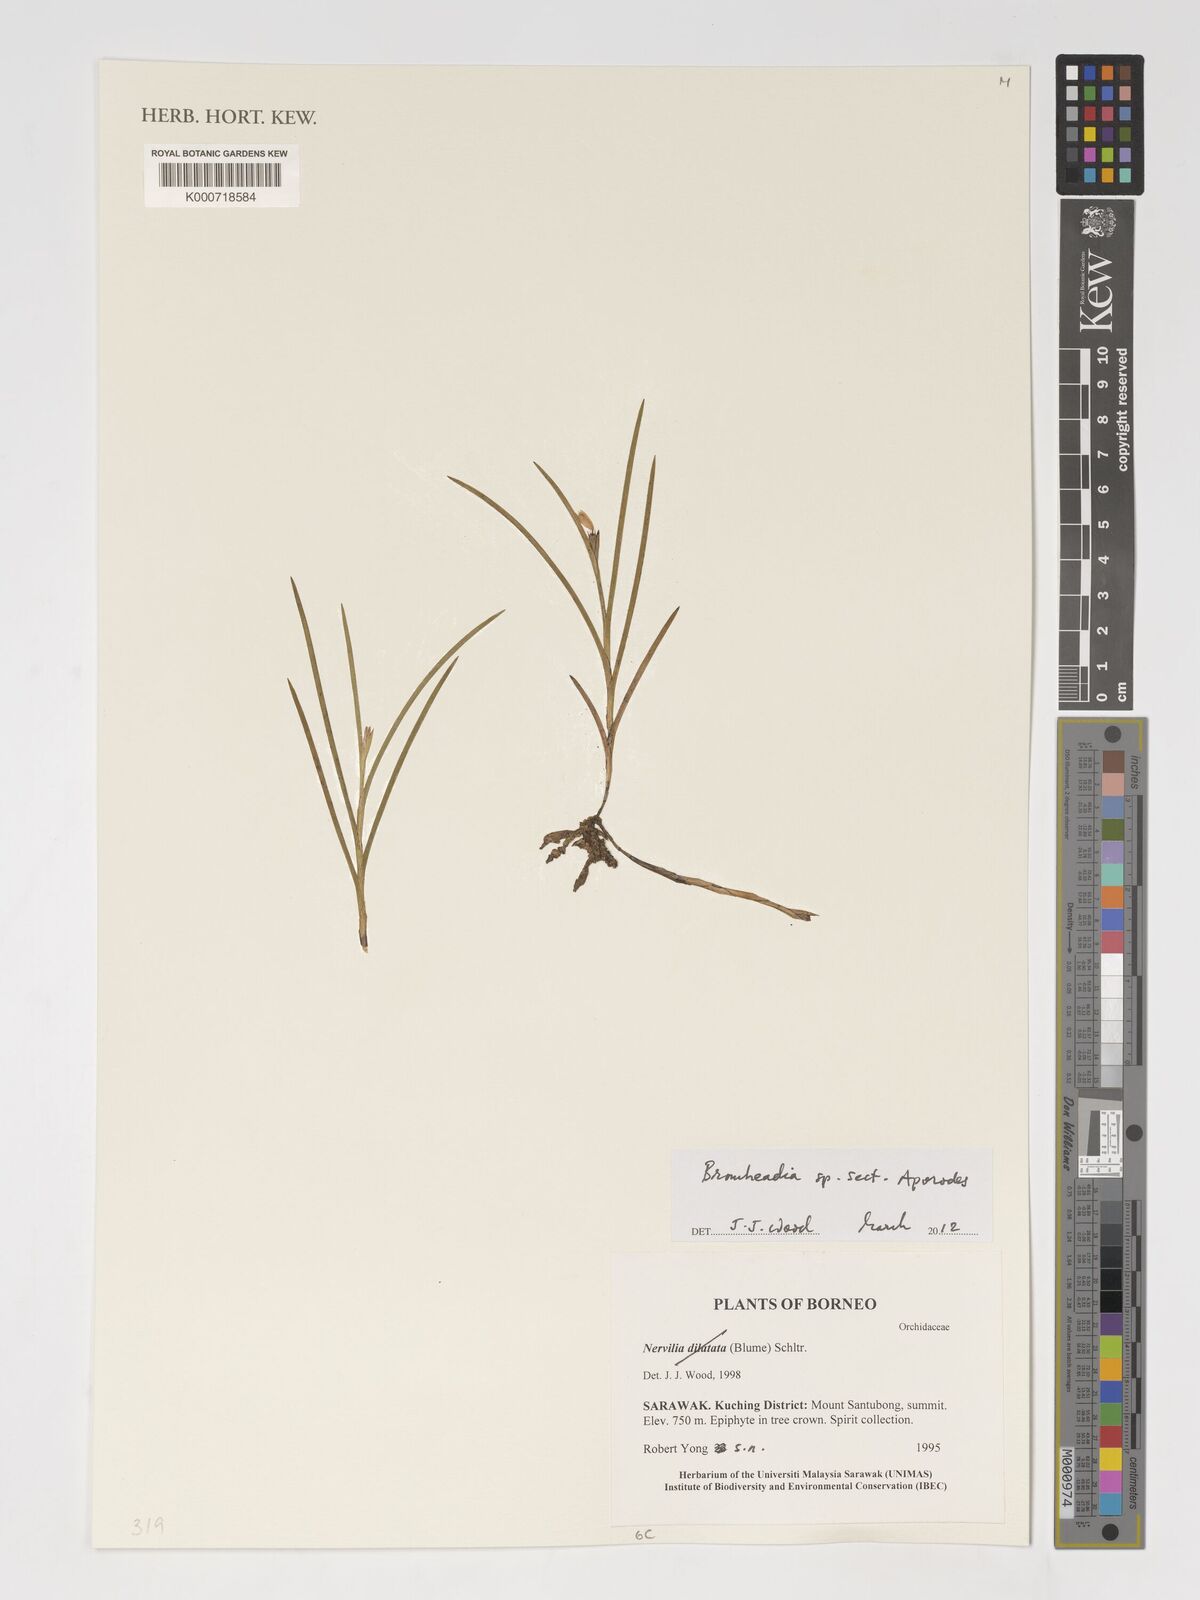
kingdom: Plantae
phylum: Tracheophyta
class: Liliopsida
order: Asparagales
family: Orchidaceae
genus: Bromheadia
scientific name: Bromheadia
